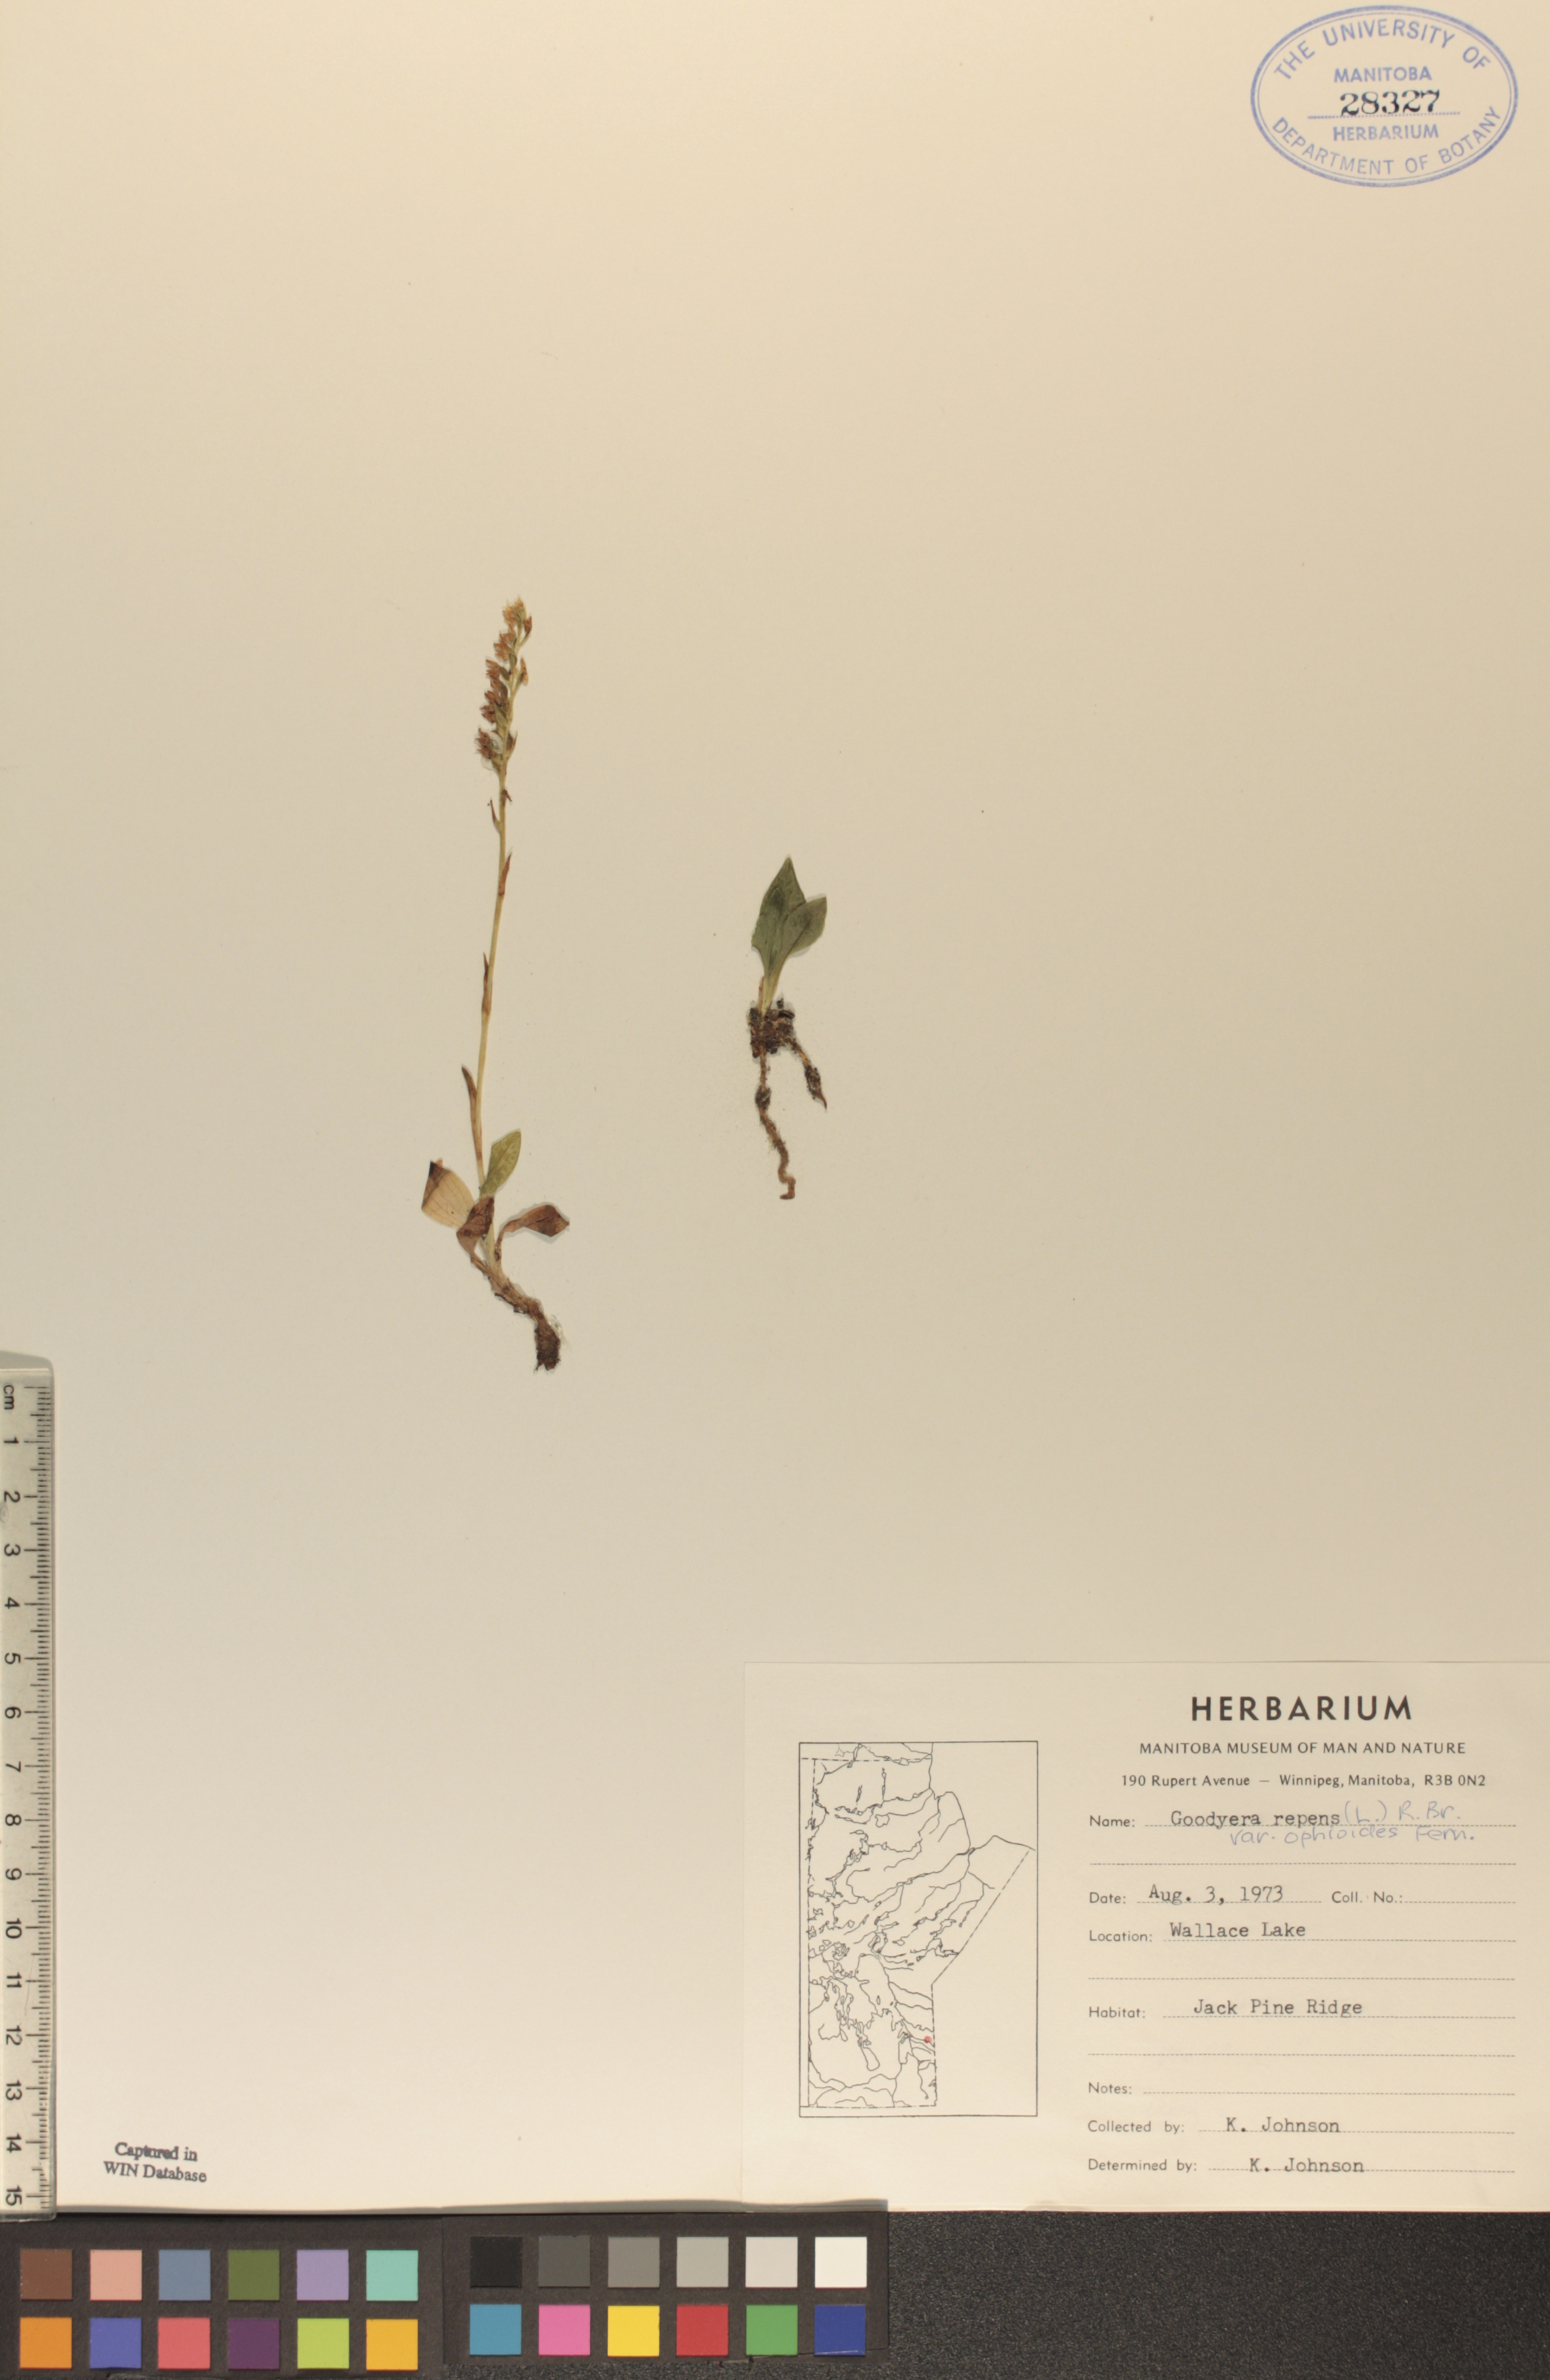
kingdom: Plantae
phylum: Tracheophyta
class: Liliopsida
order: Asparagales
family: Orchidaceae
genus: Goodyera
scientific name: Goodyera repens
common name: Creeping lady's-tresses
